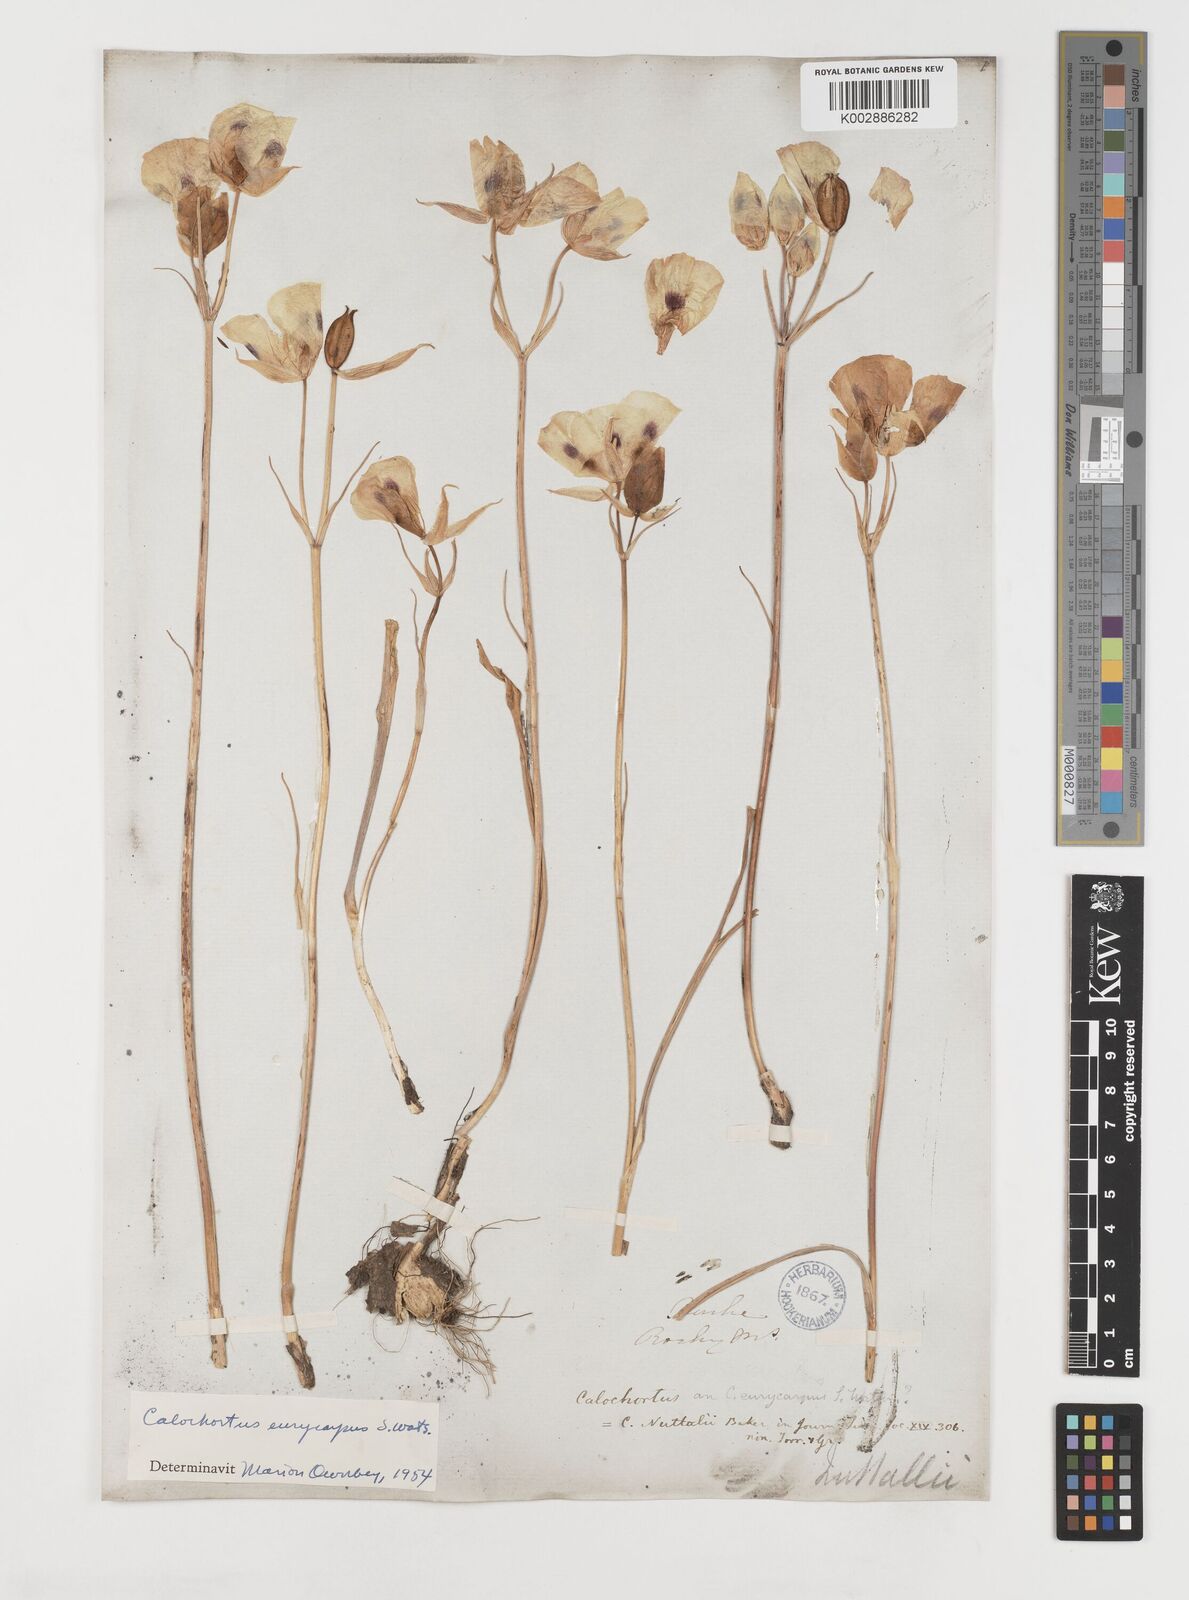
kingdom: Plantae
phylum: Tracheophyta
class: Liliopsida
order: Liliales
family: Liliaceae
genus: Calochortus
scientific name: Calochortus eurycarpus
